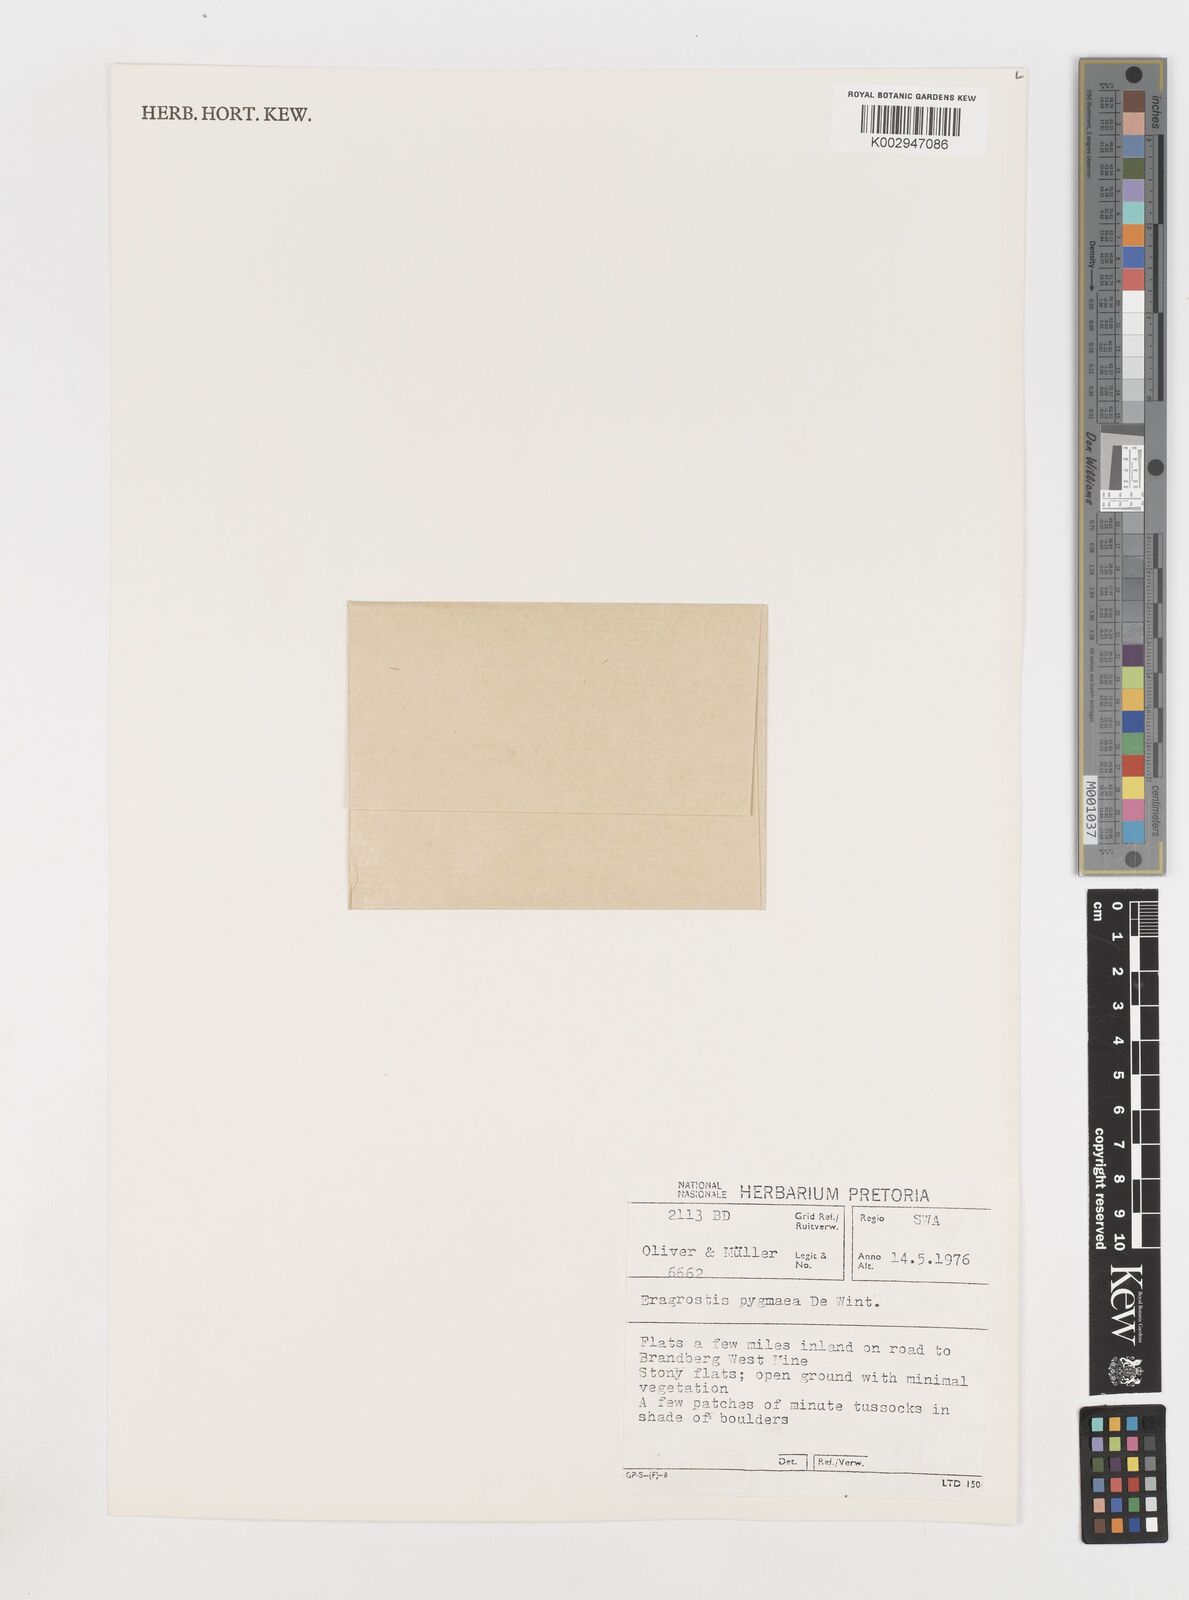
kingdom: Plantae
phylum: Tracheophyta
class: Liliopsida
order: Poales
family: Poaceae
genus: Eragrostis
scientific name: Eragrostis pygmaea
